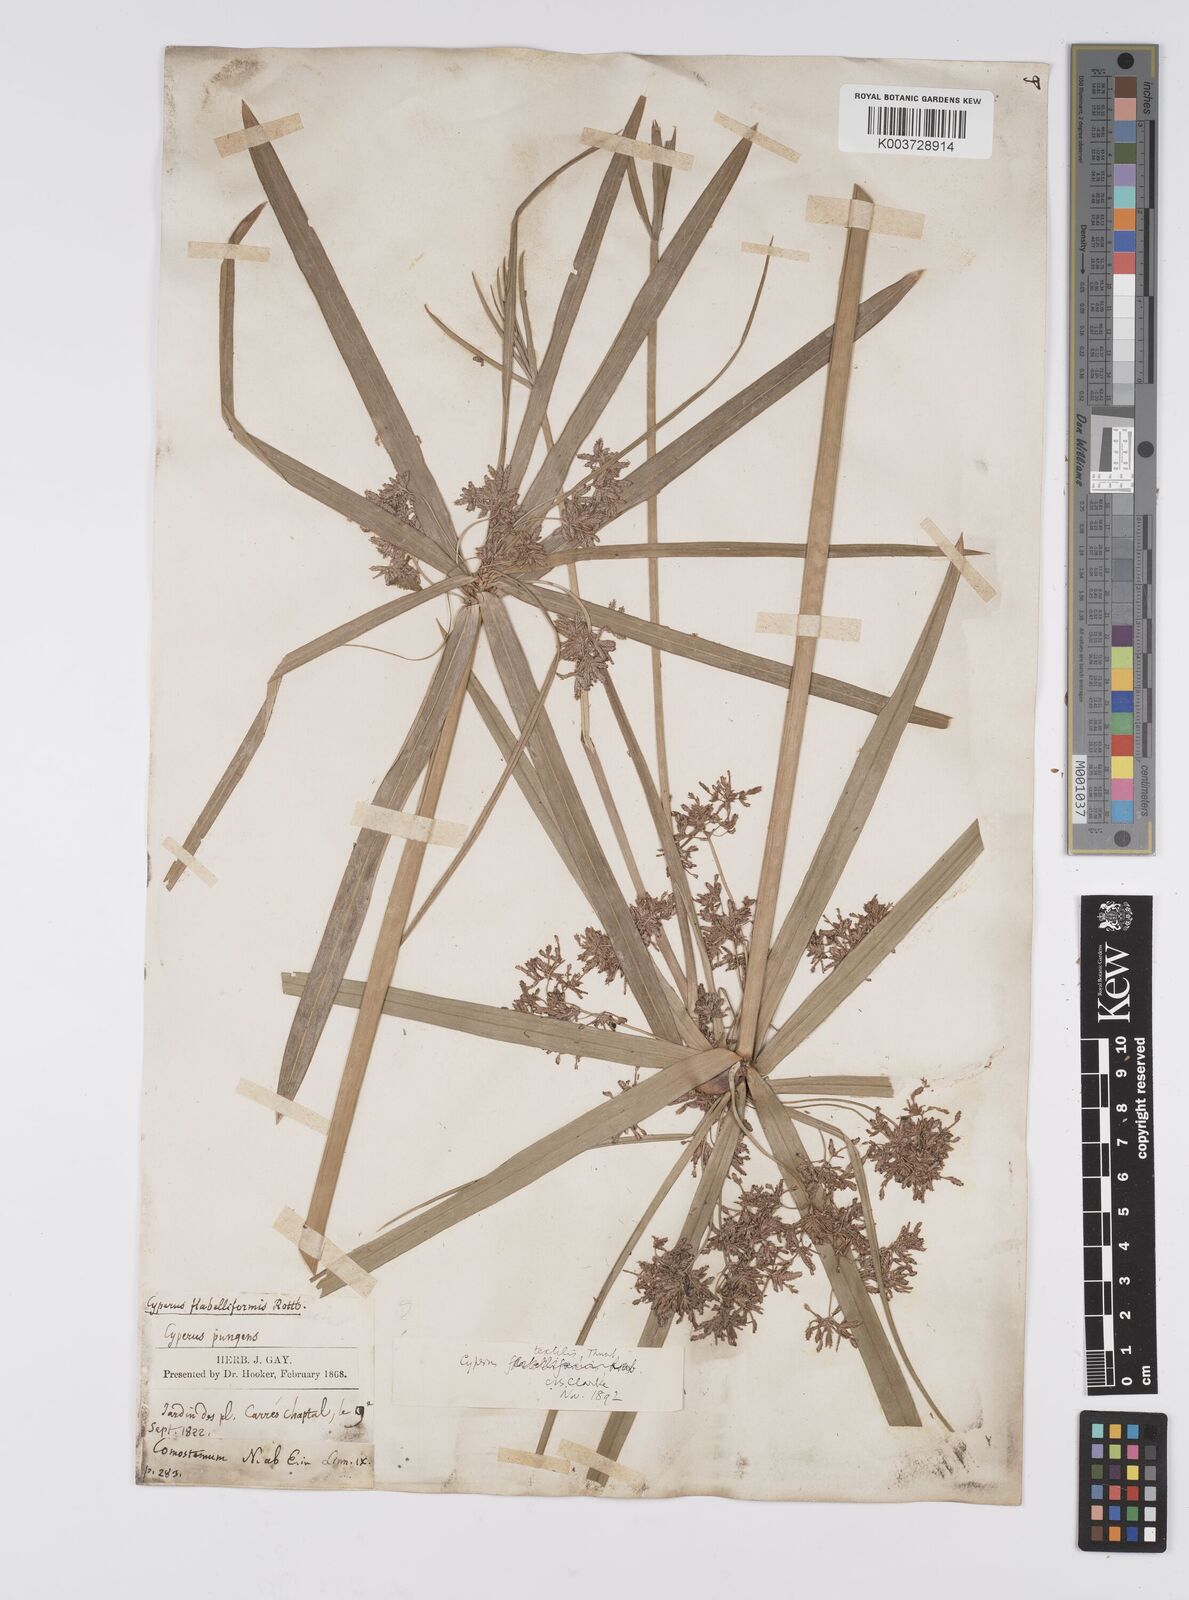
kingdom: Plantae
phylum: Tracheophyta
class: Liliopsida
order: Poales
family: Cyperaceae
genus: Cyperus
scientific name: Cyperus alternifolius
